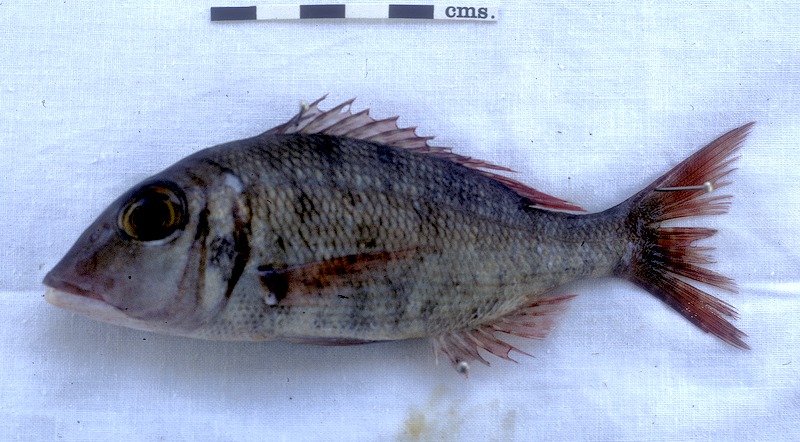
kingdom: Animalia
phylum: Chordata
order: Perciformes
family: Lethrinidae
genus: Lethrinus
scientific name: Lethrinus miniatus
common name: Trumpet emperor
